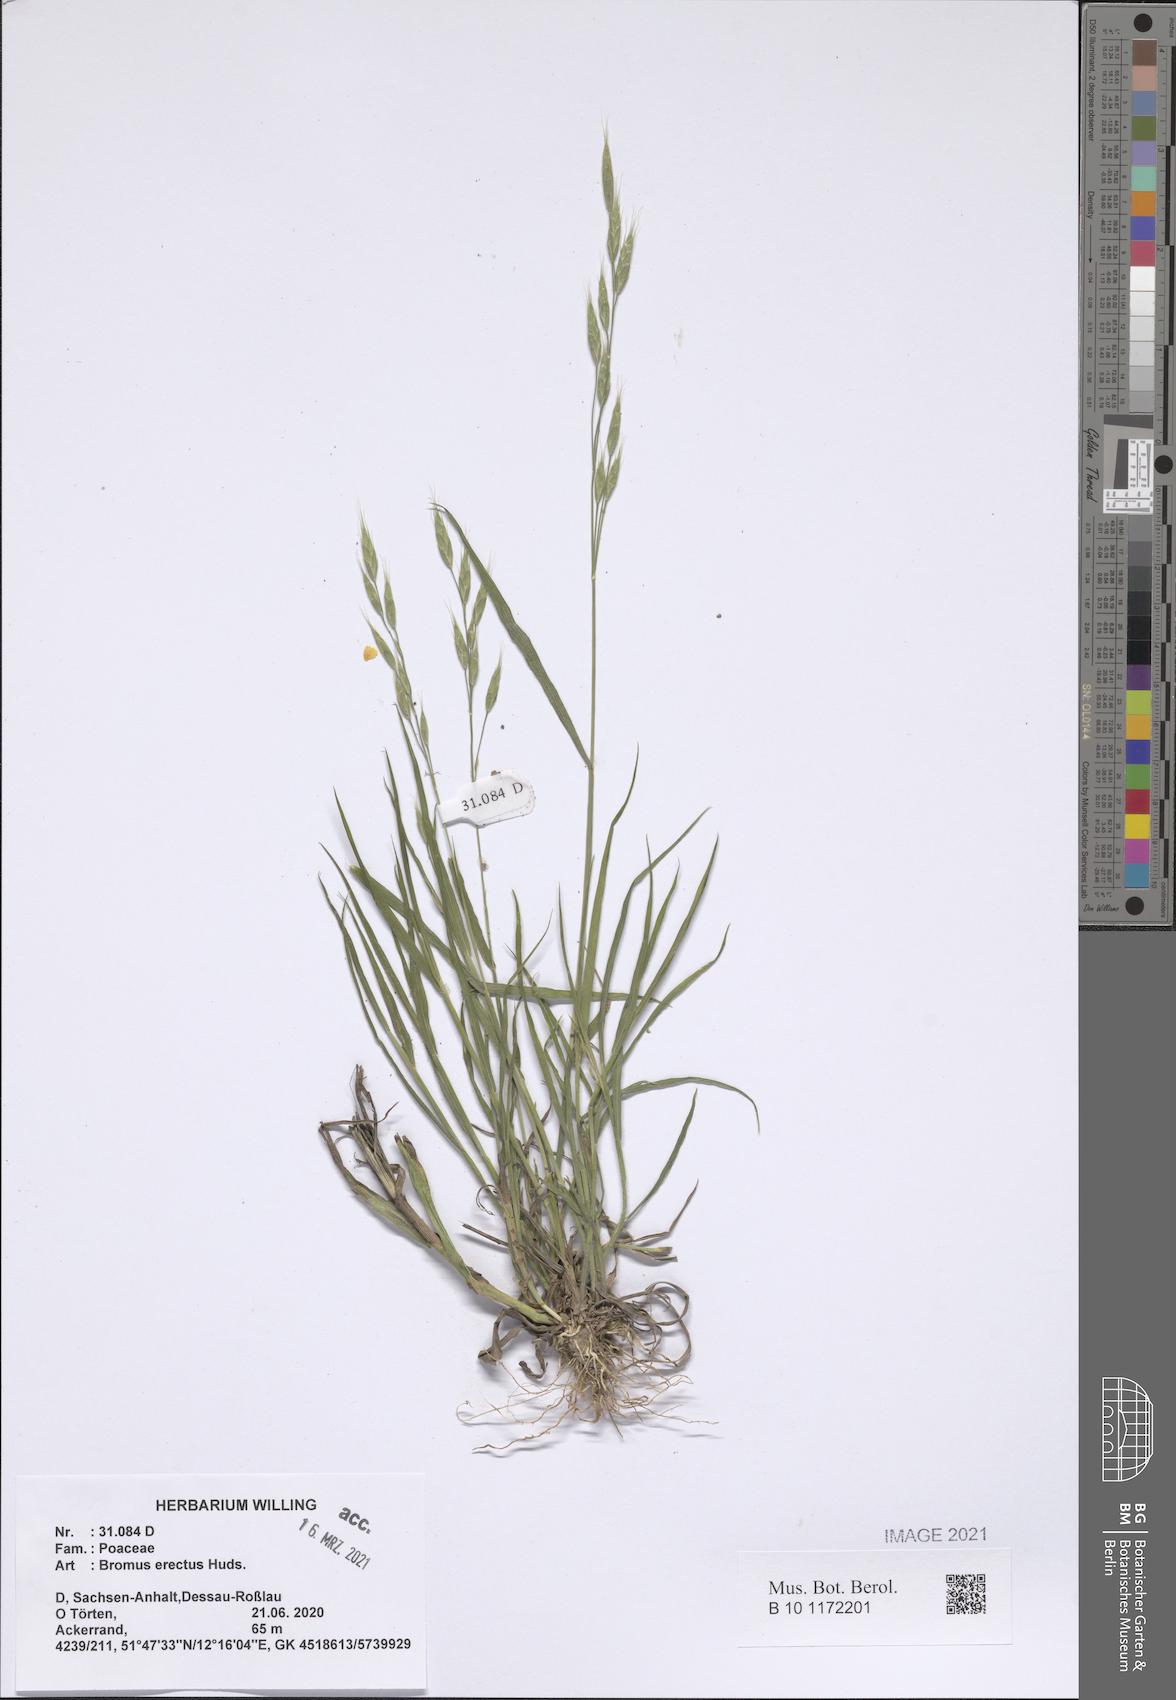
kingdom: Plantae
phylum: Tracheophyta
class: Liliopsida
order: Poales
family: Poaceae
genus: Bromus
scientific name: Bromus erectus
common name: Erect brome
